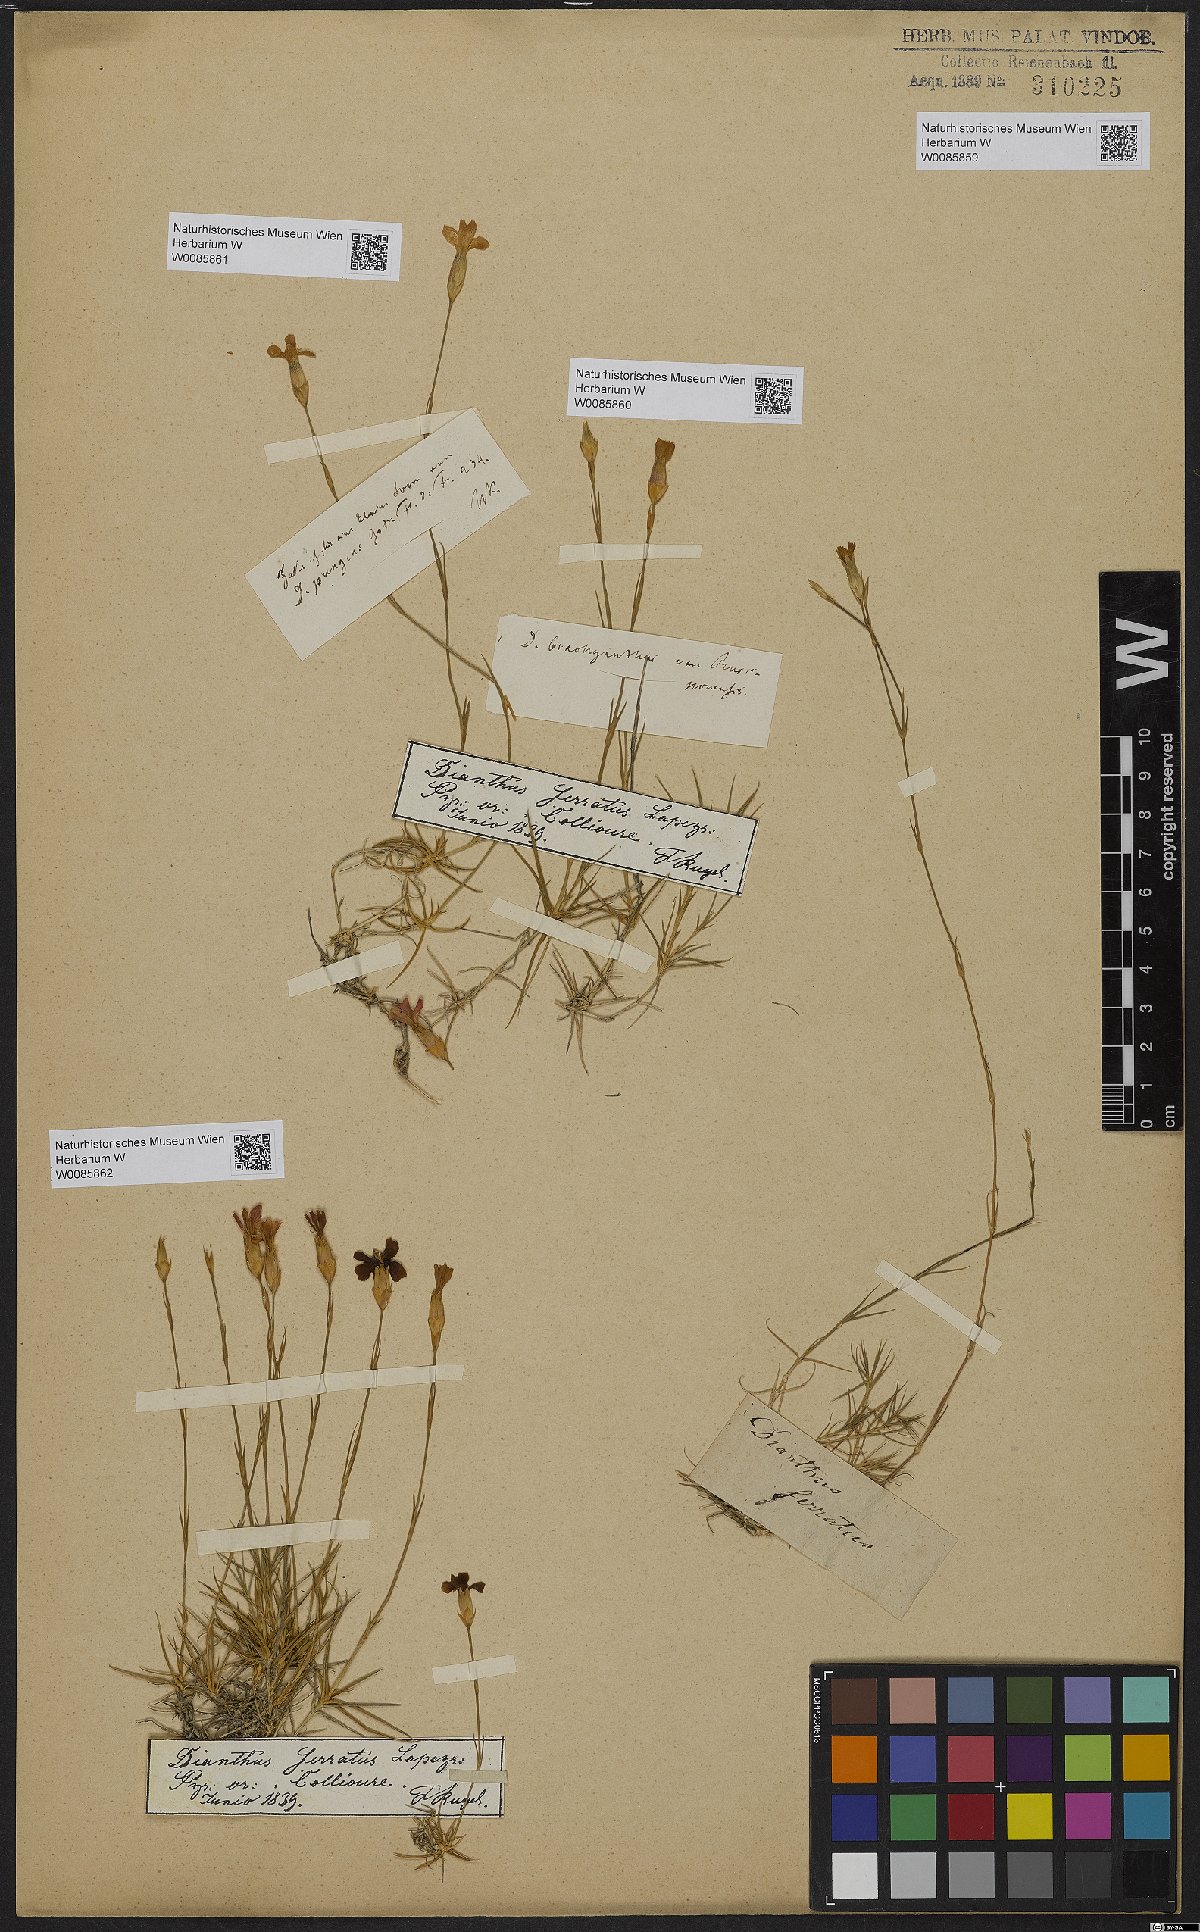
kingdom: Plantae
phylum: Tracheophyta
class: Magnoliopsida
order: Caryophyllales
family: Caryophyllaceae
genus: Dianthus
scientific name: Dianthus pungens
